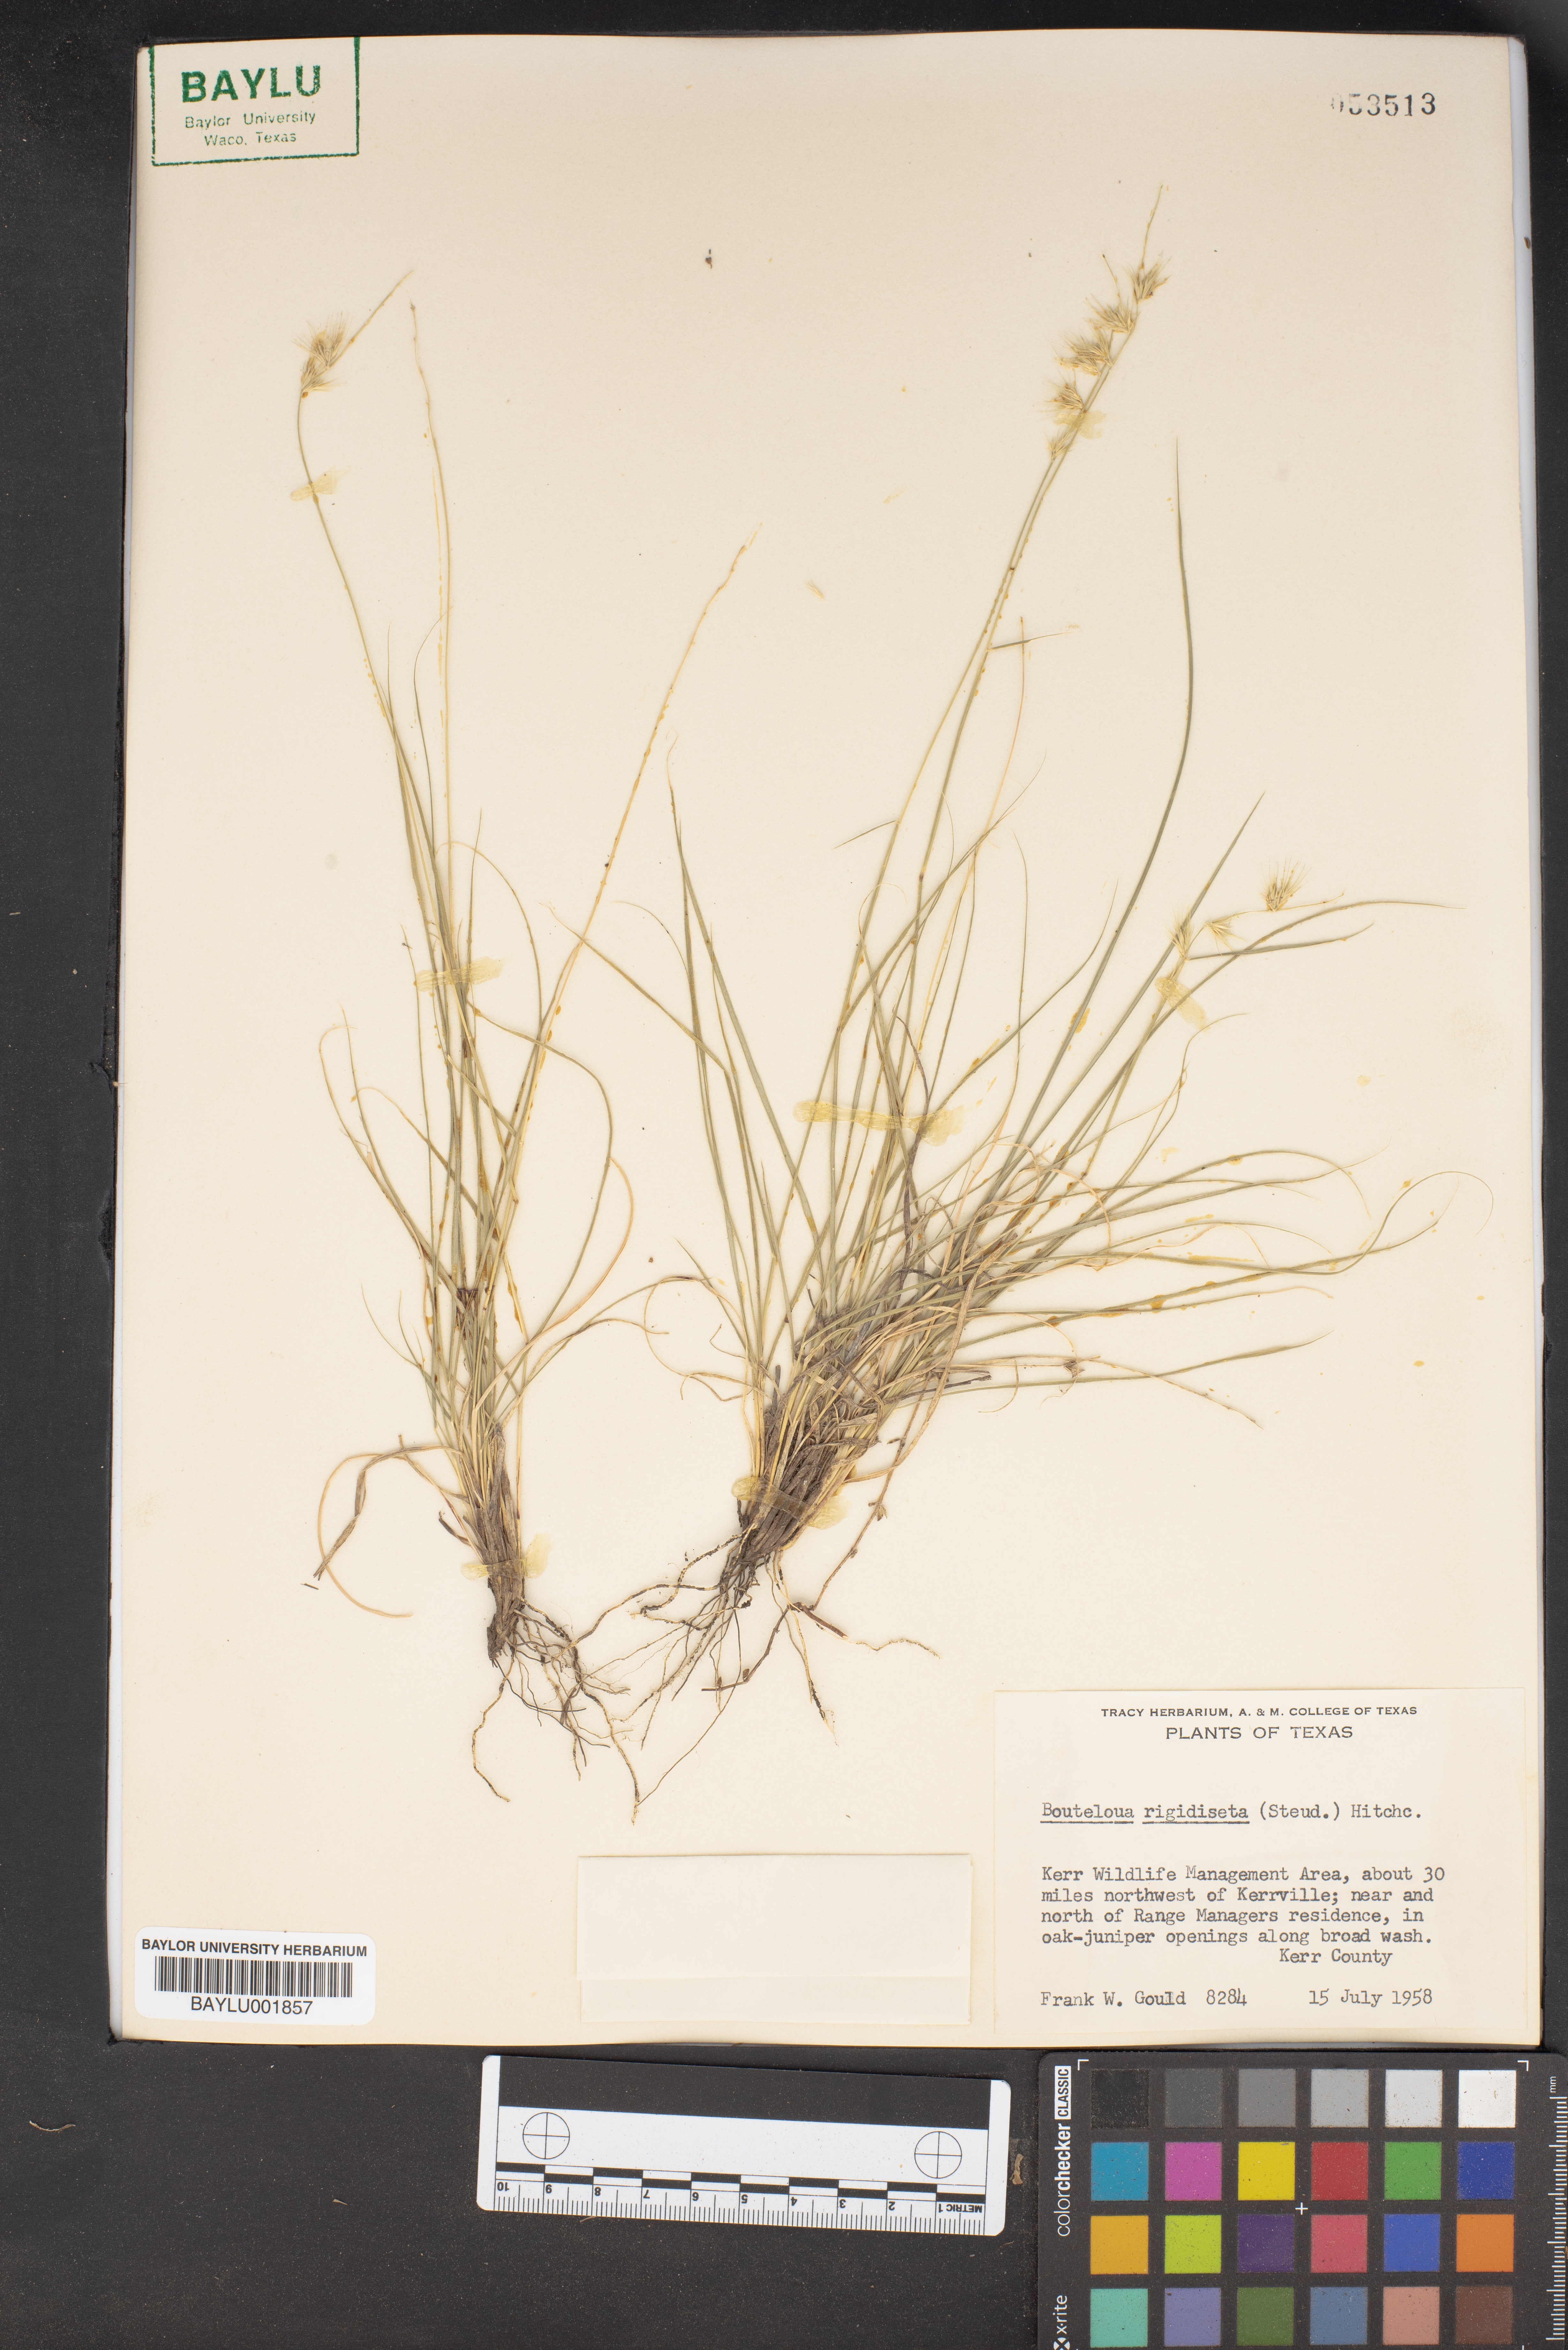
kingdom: Plantae
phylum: Tracheophyta
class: Liliopsida
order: Poales
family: Poaceae
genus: Bouteloua
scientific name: Bouteloua rigidiseta
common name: Texas grama
